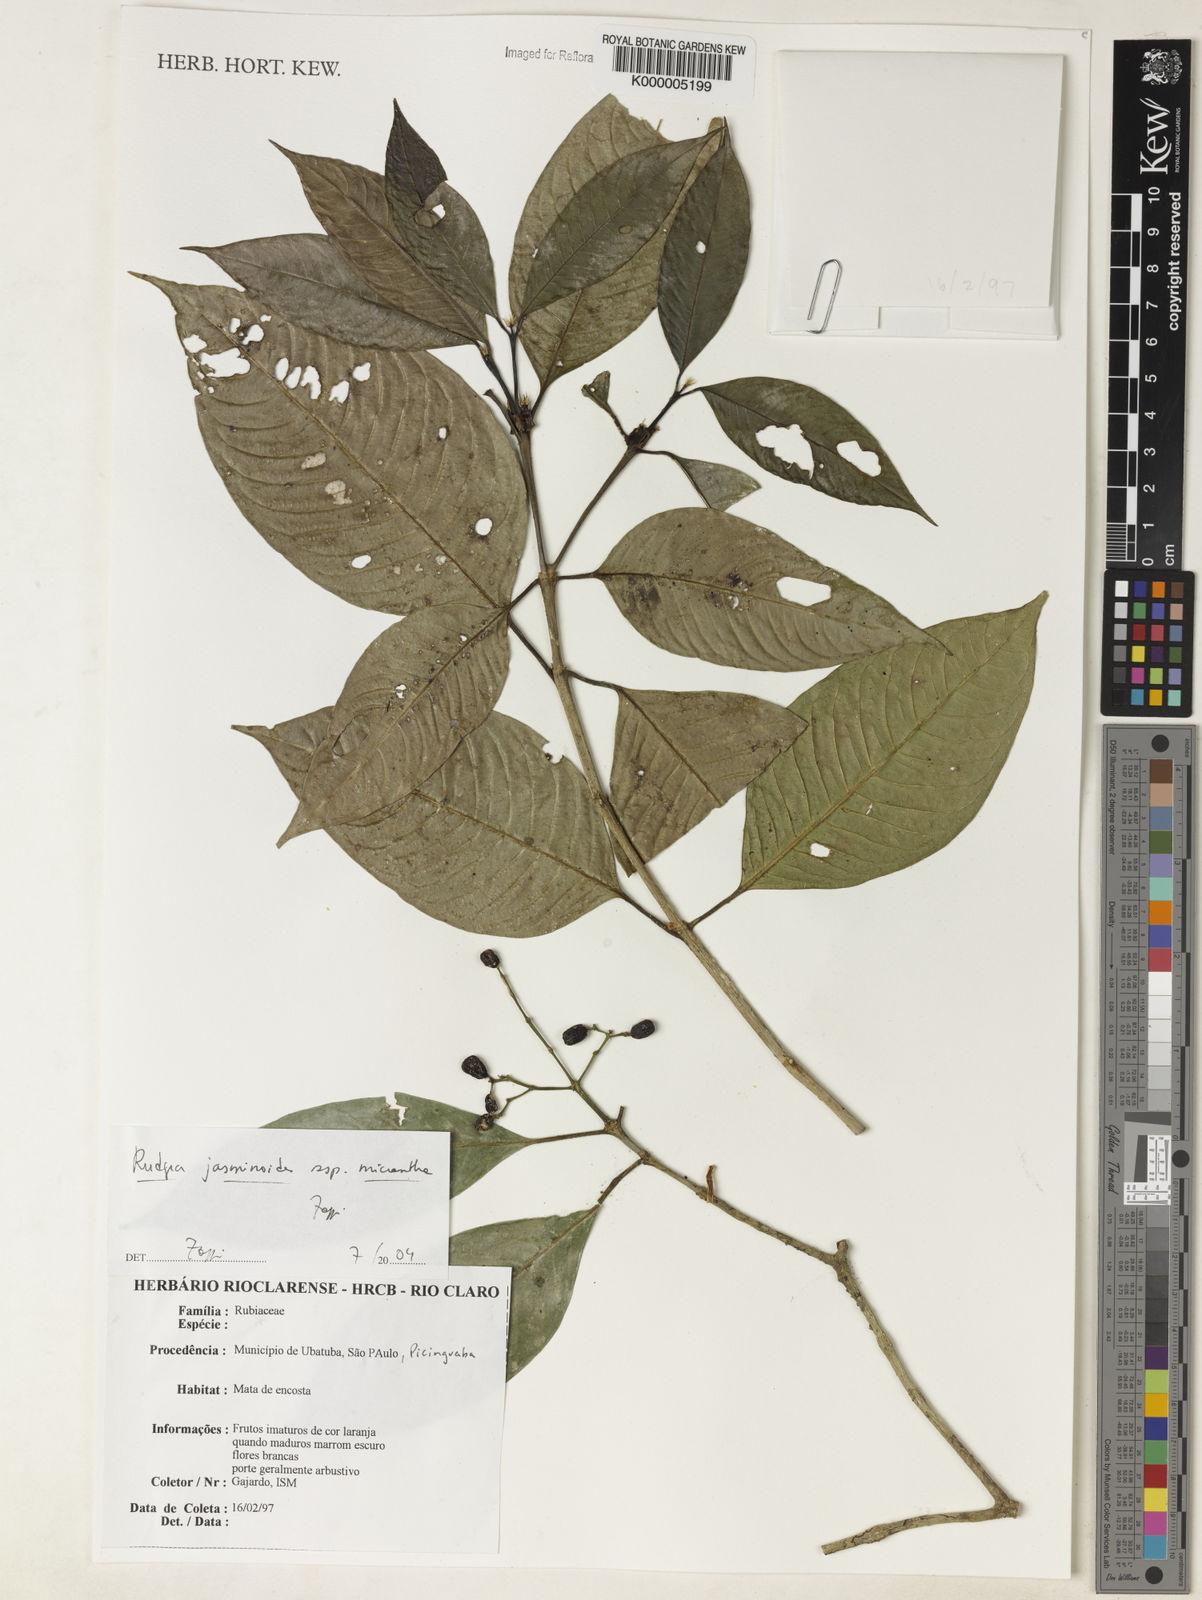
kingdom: Plantae
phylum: Tracheophyta
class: Magnoliopsida
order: Gentianales
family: Rubiaceae
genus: Rudgea
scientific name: Rudgea jasminoides
